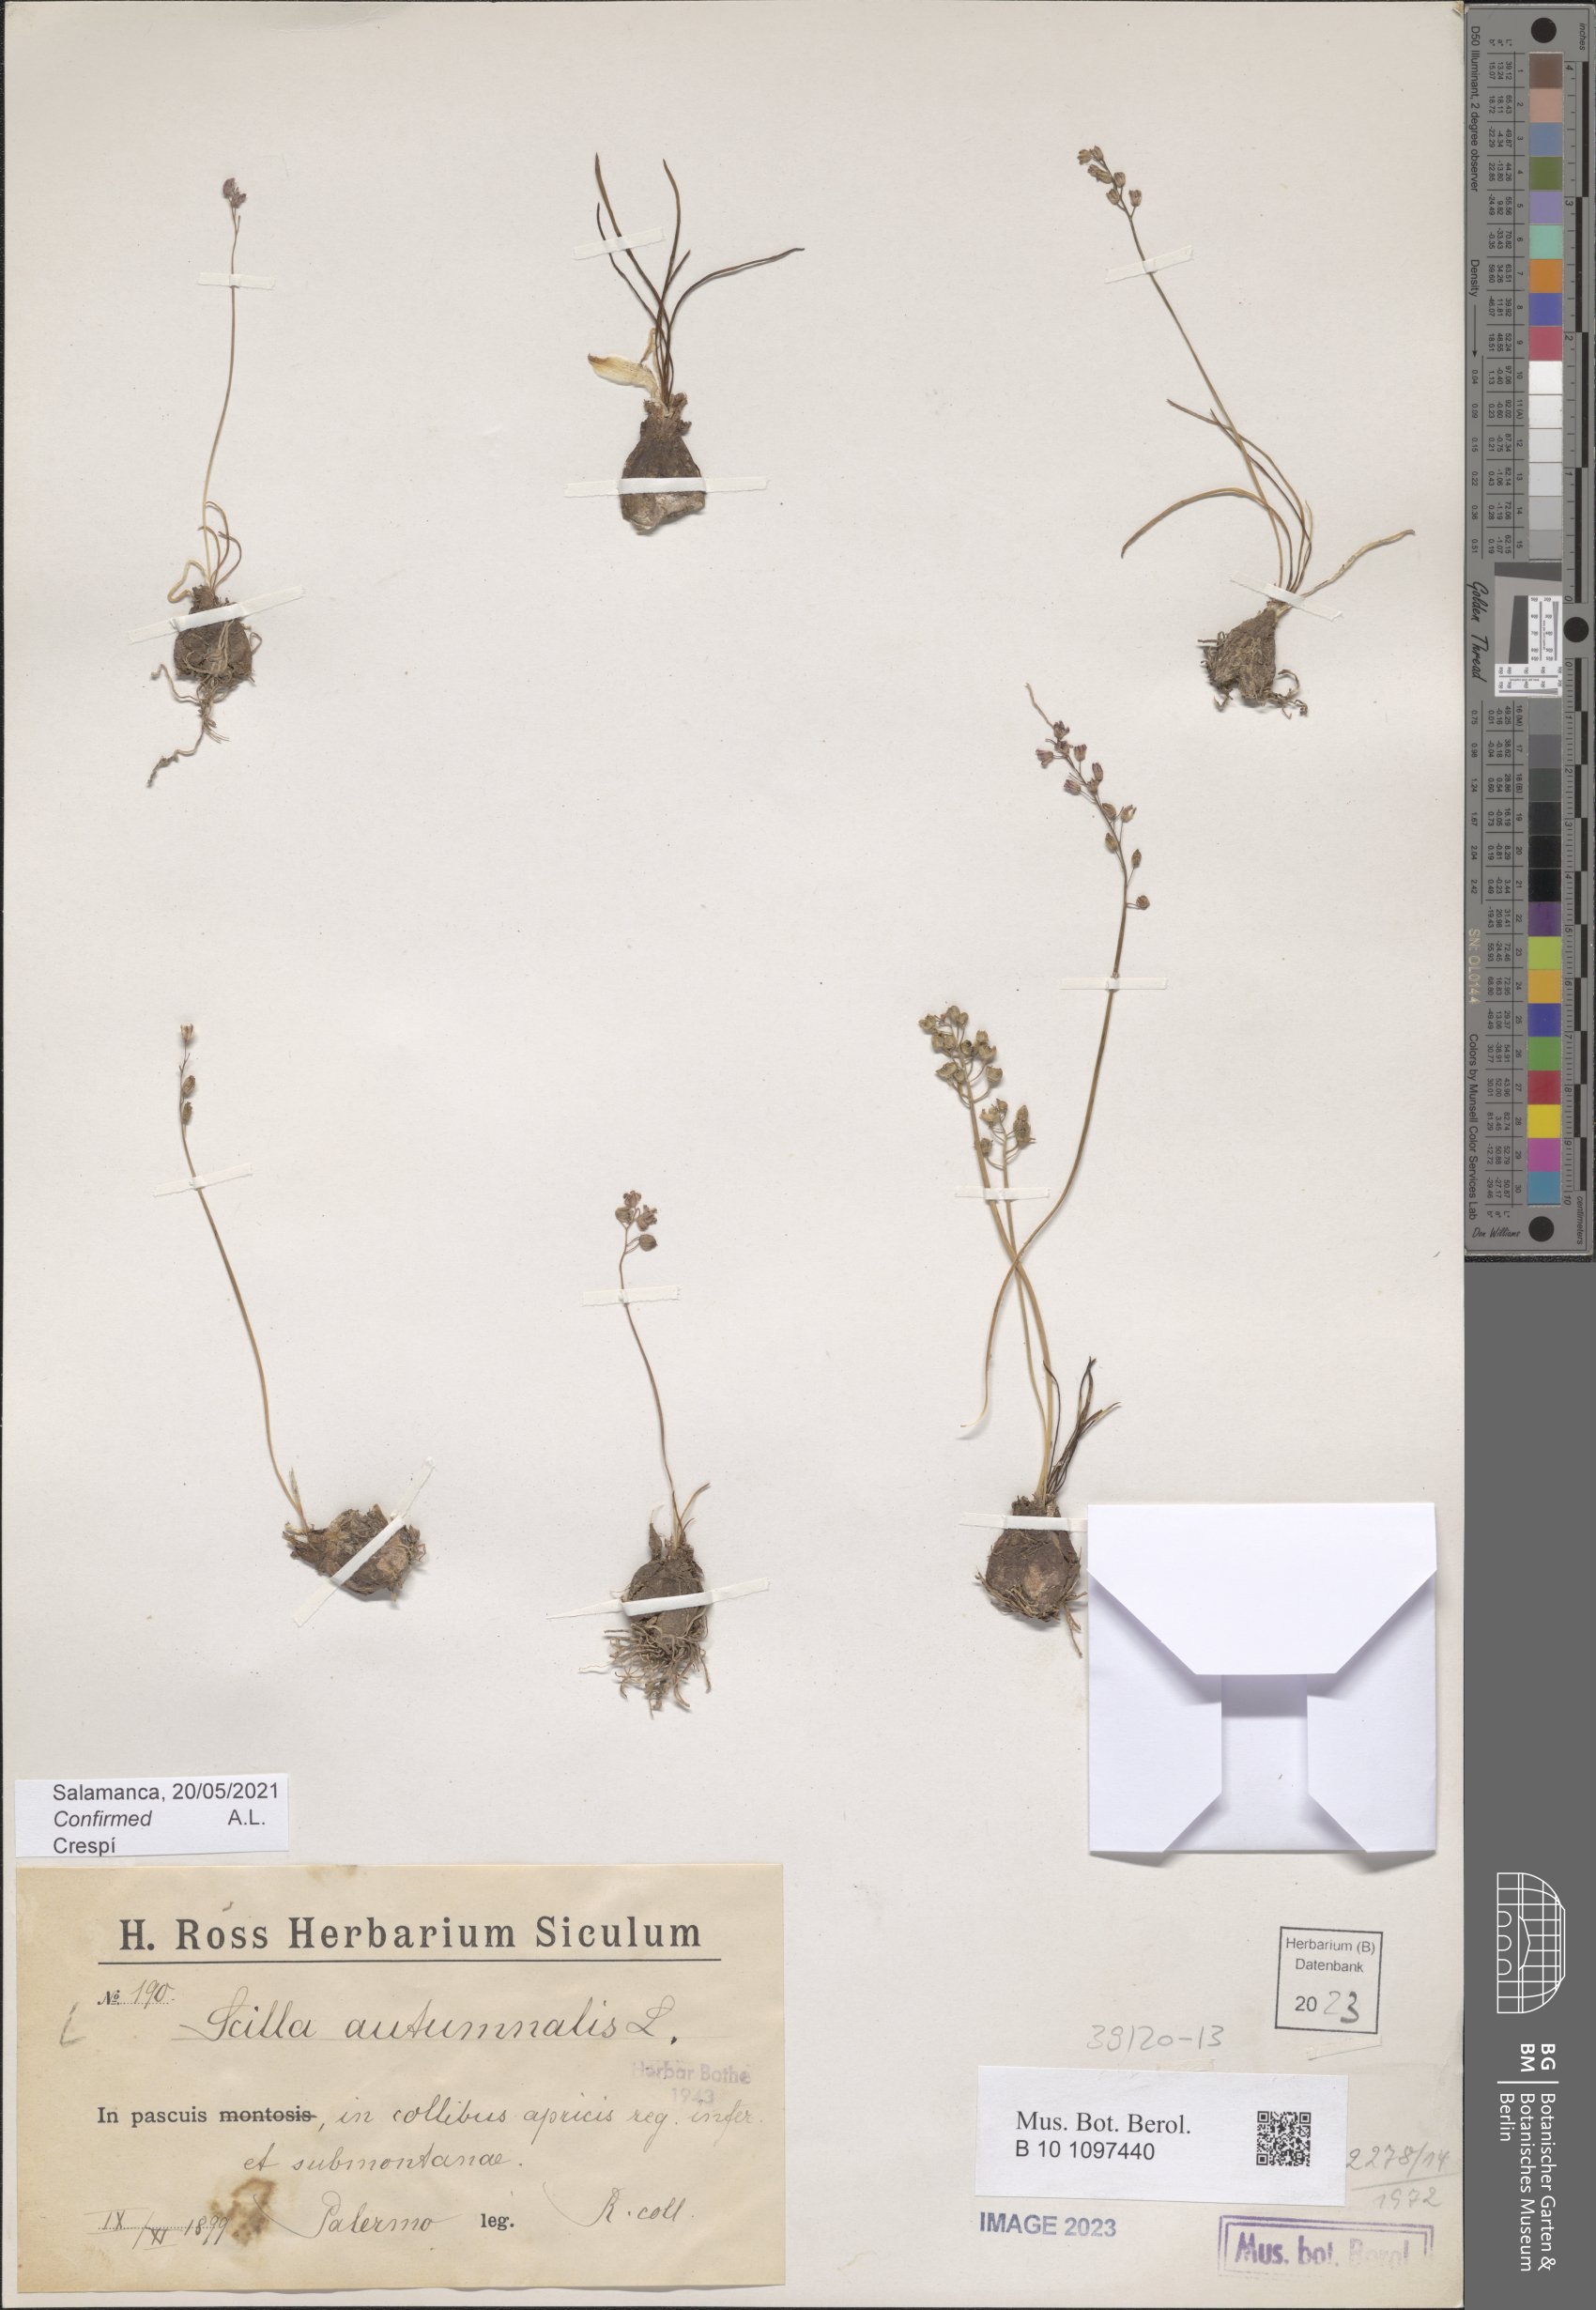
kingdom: Plantae
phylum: Tracheophyta
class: Liliopsida
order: Asparagales
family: Asparagaceae
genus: Prospero
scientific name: Prospero autumnale
